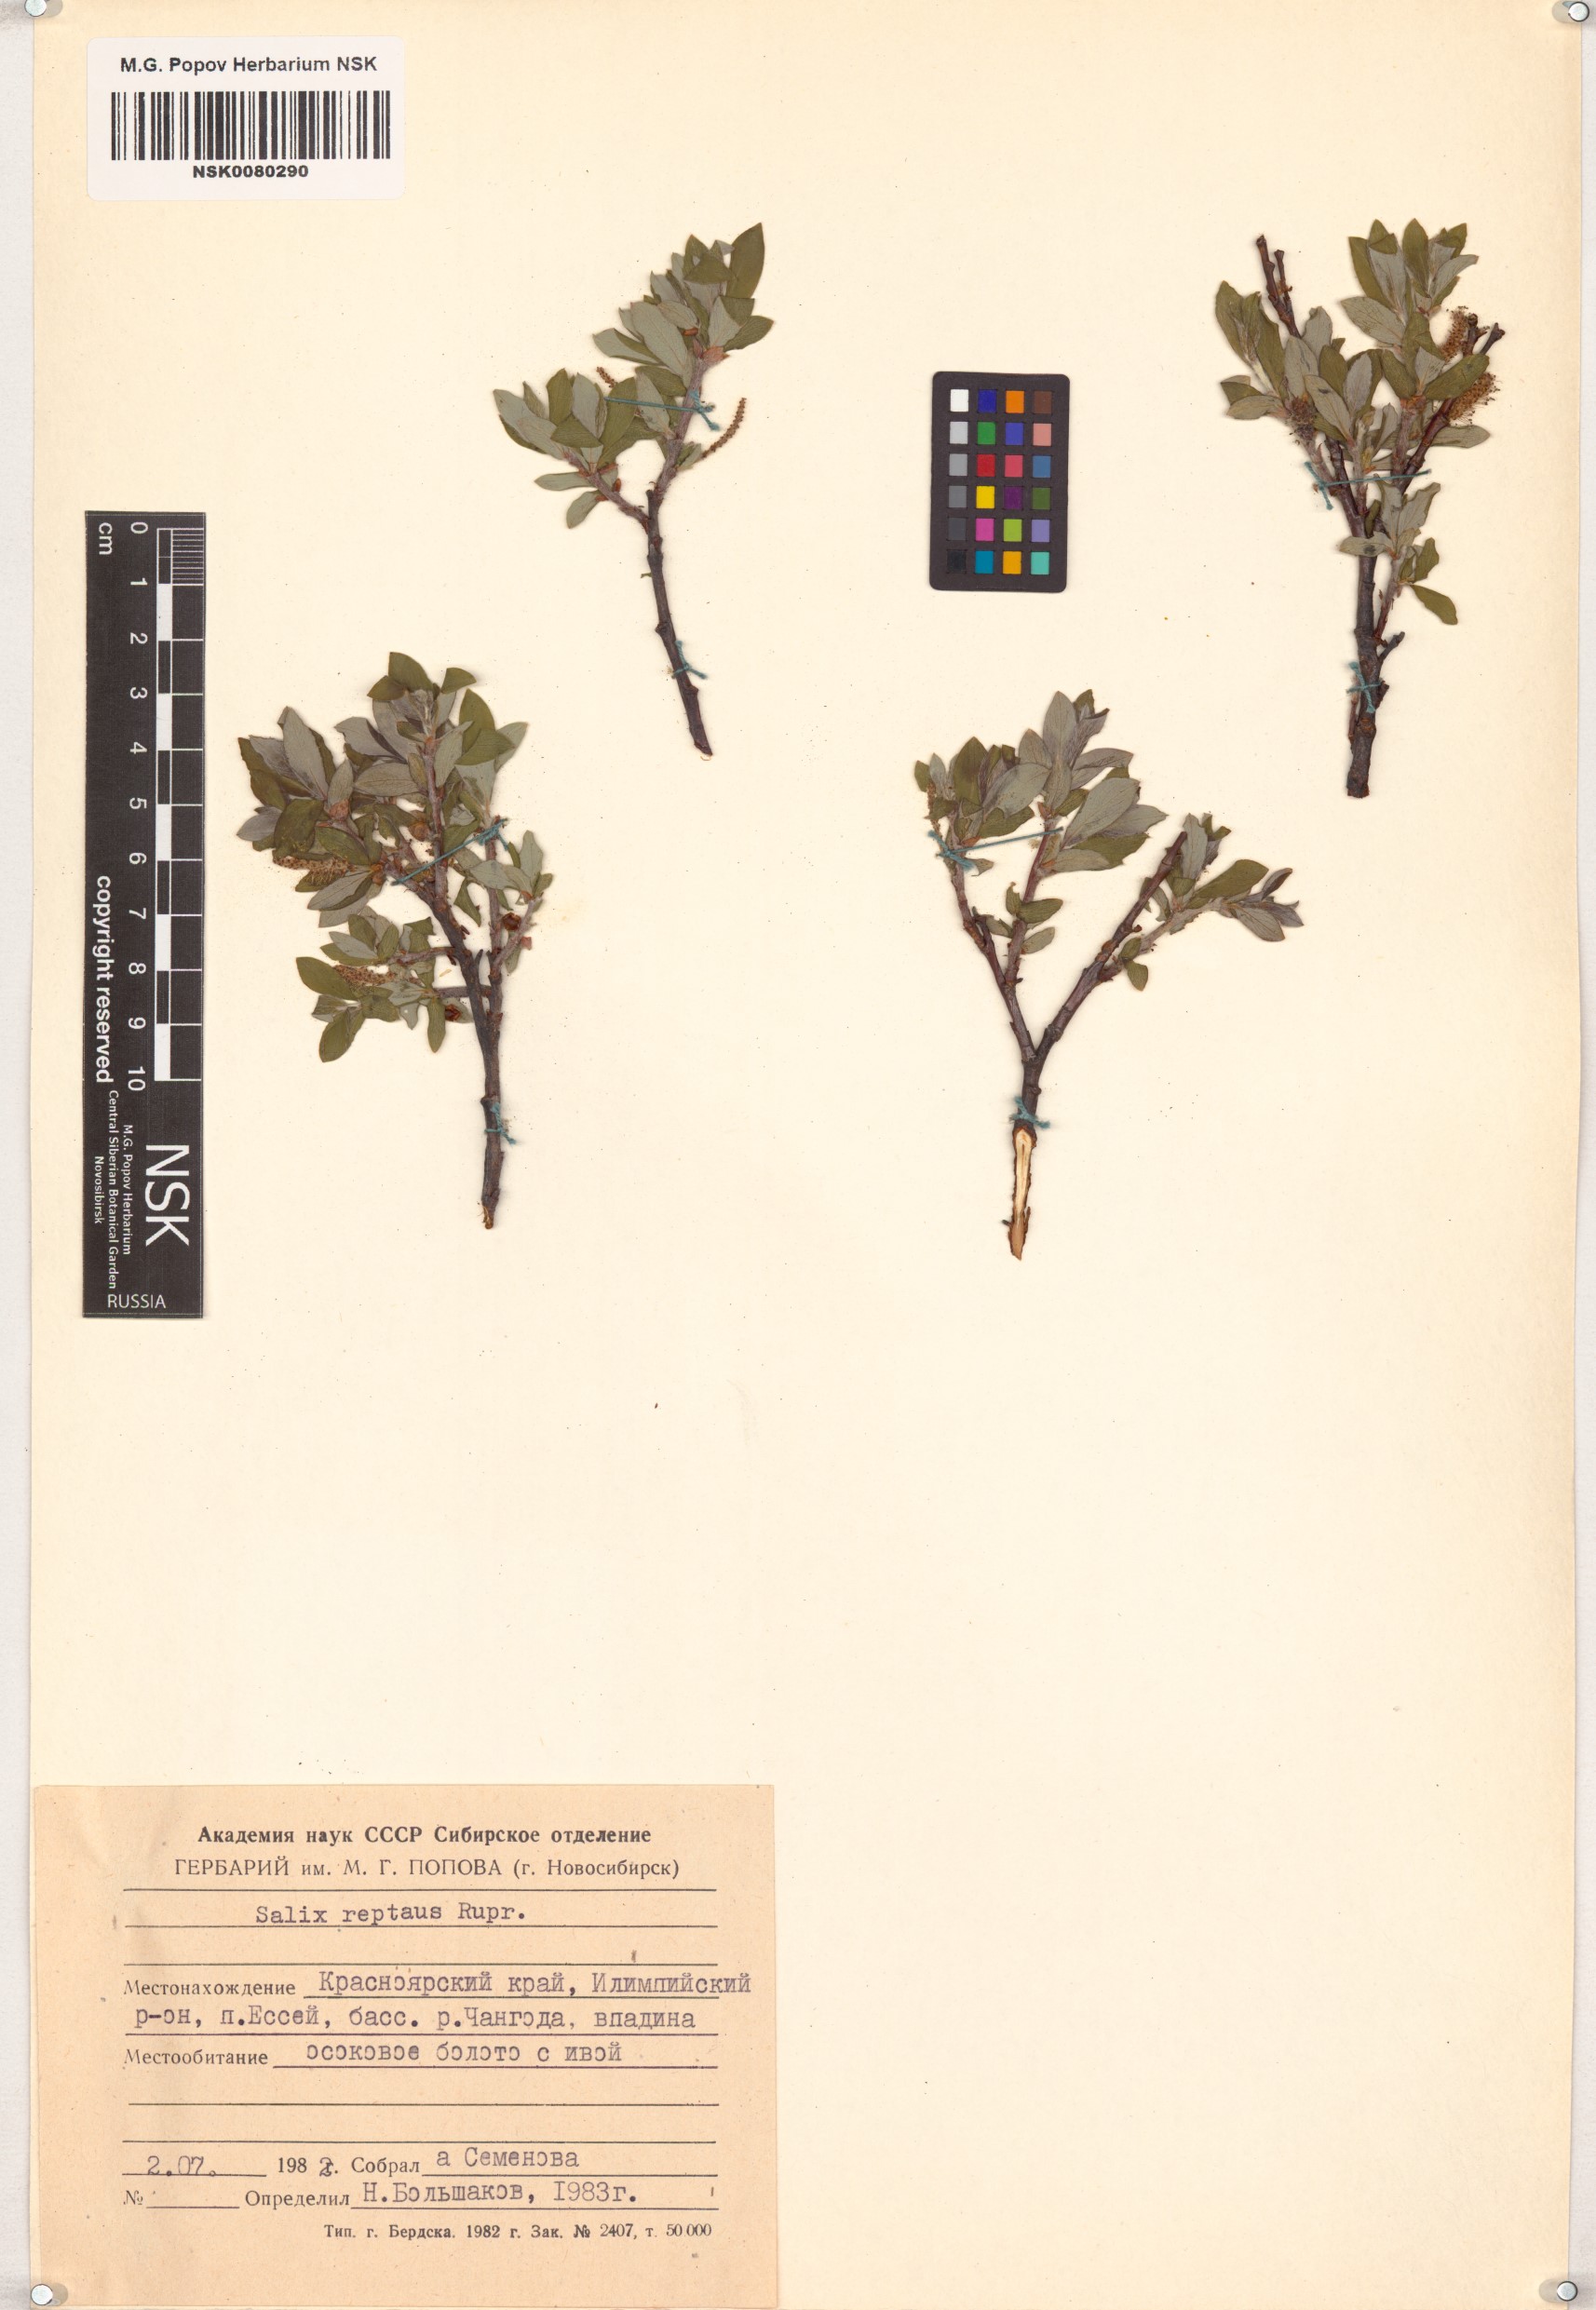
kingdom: Plantae
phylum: Tracheophyta
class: Magnoliopsida
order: Malpighiales
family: Salicaceae
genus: Salix
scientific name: Salix reptans
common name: Arctic creeping willow
